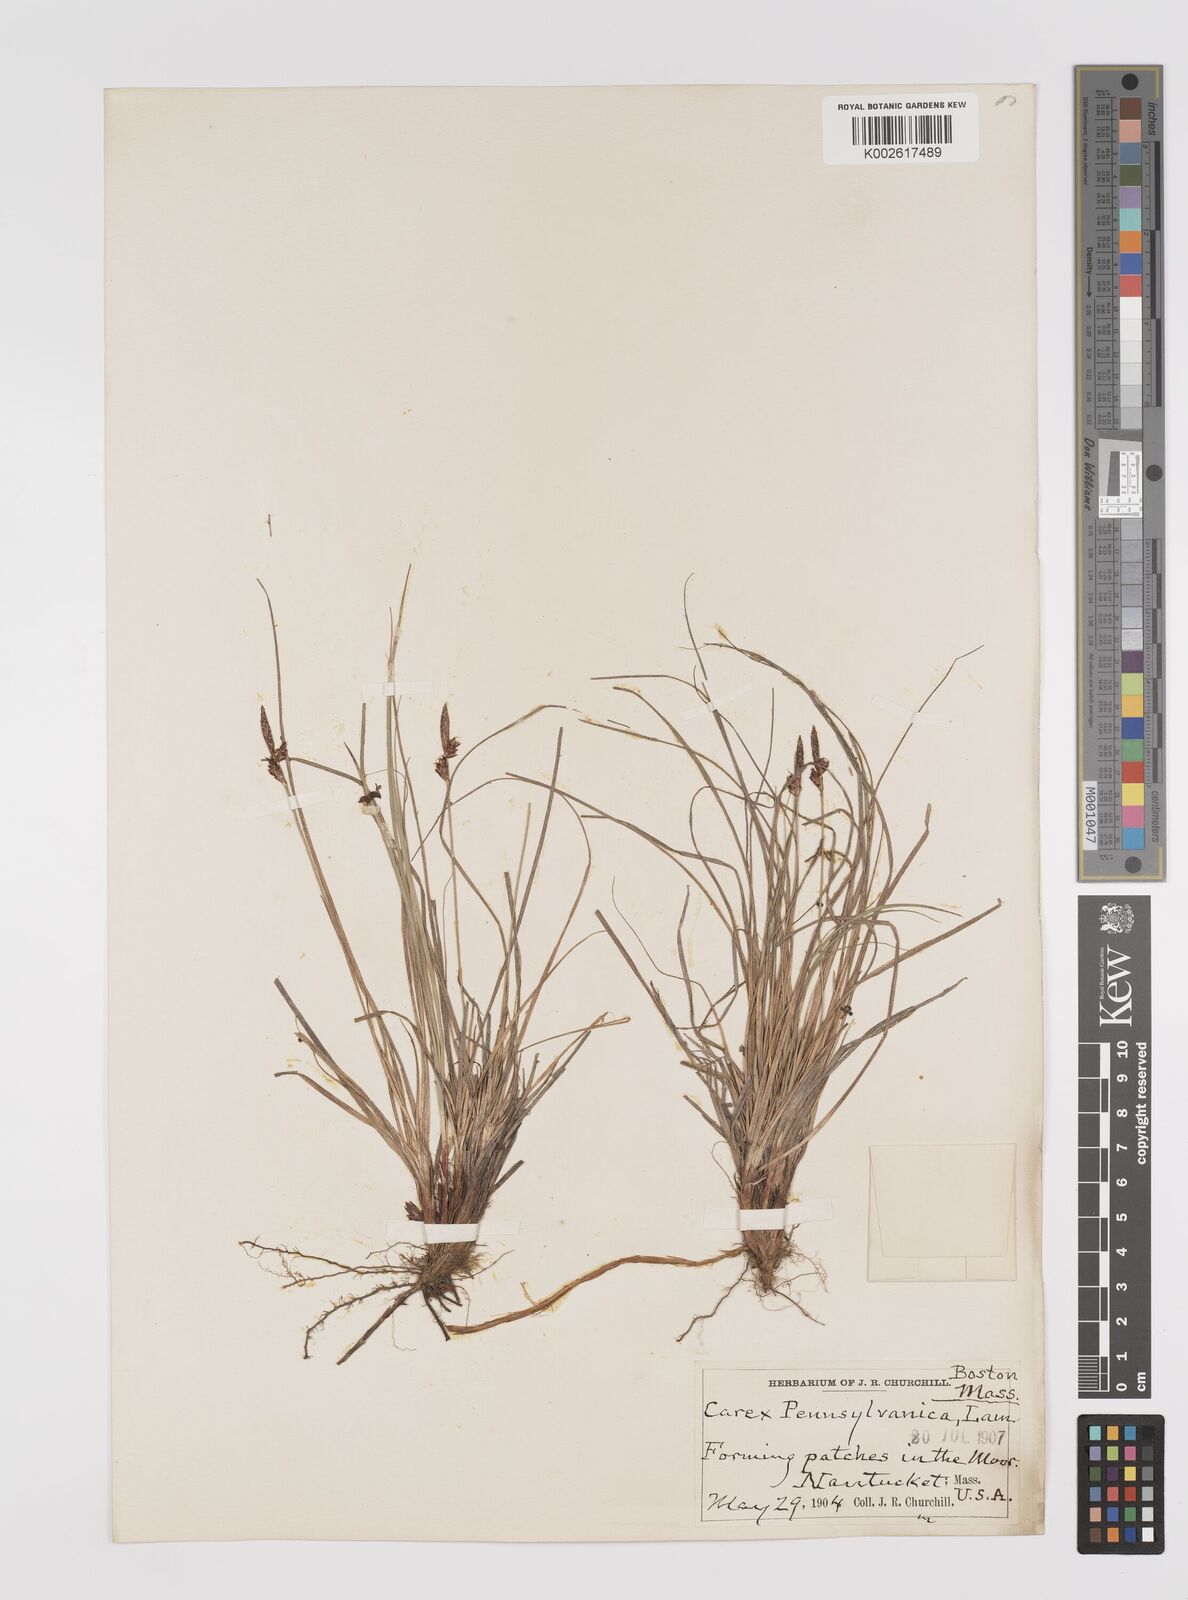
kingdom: Plantae
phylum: Tracheophyta
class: Liliopsida
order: Poales
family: Cyperaceae
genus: Carex
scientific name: Carex pensylvanica
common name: Common oak sedge
